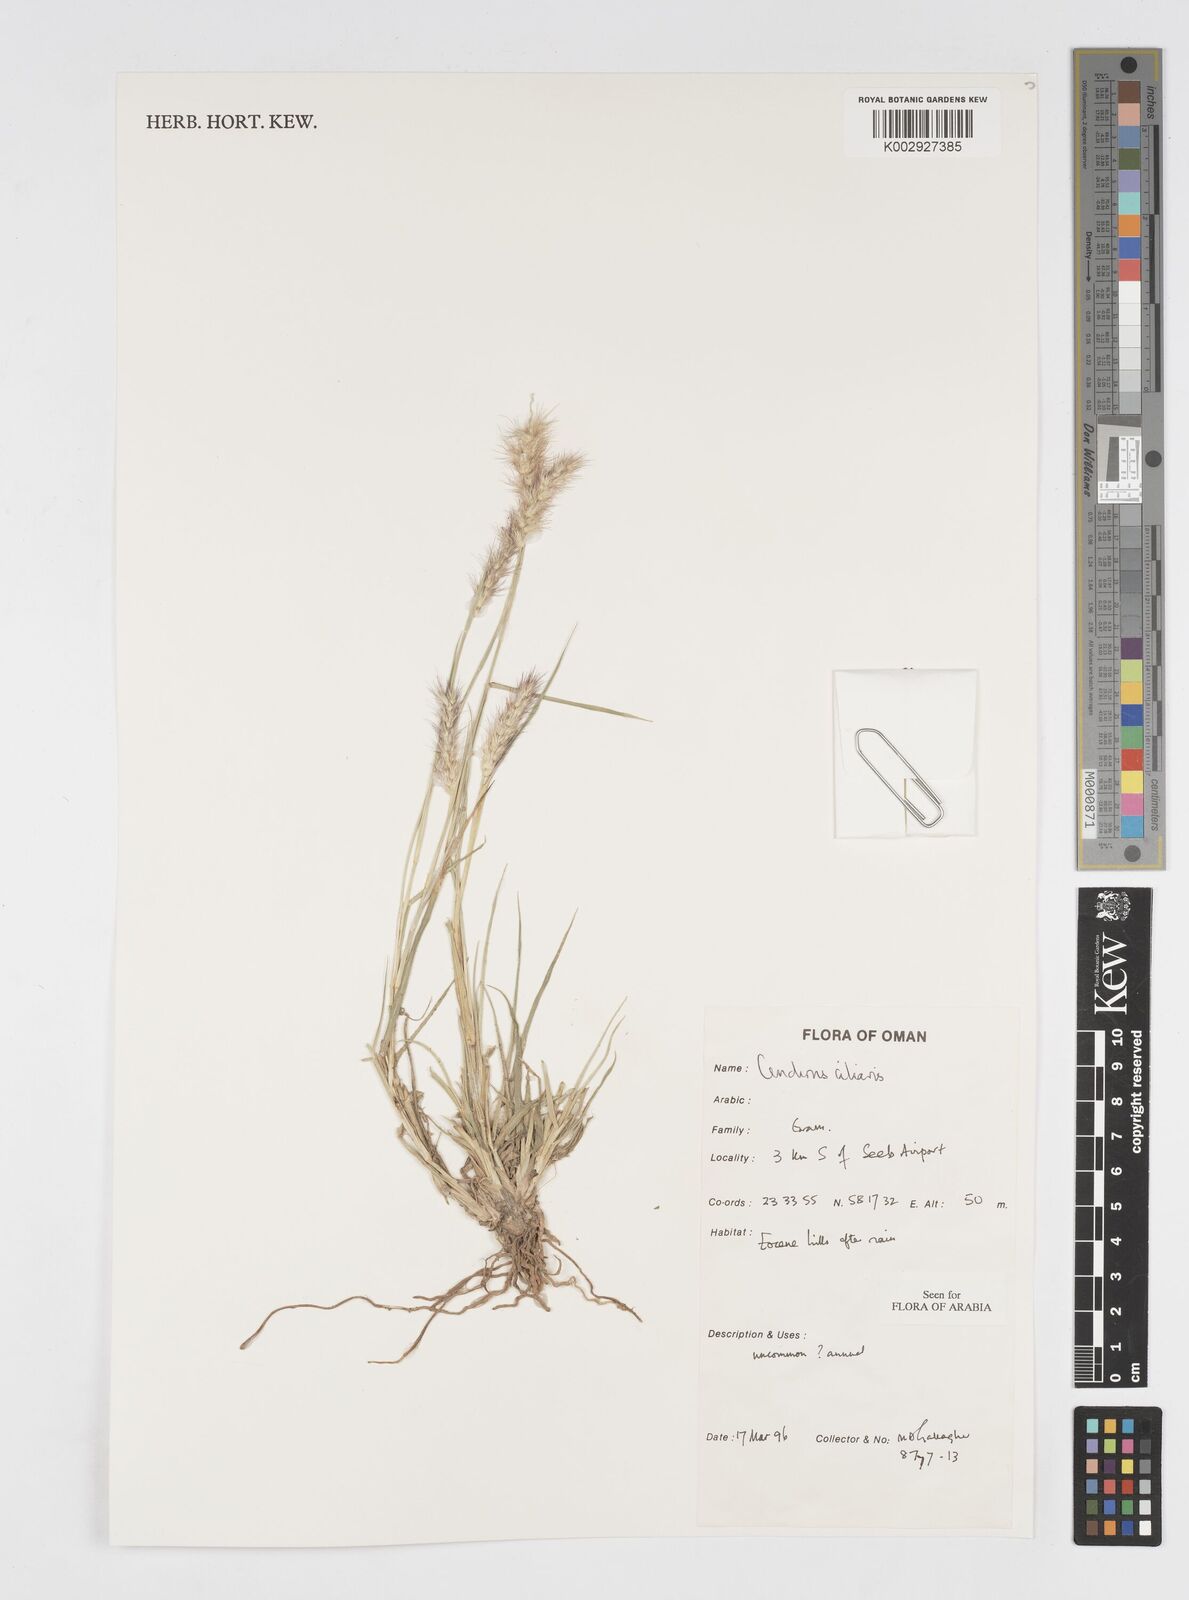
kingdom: Plantae
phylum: Tracheophyta
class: Liliopsida
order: Poales
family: Poaceae
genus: Cenchrus
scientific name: Cenchrus ciliaris
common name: Buffelgrass
